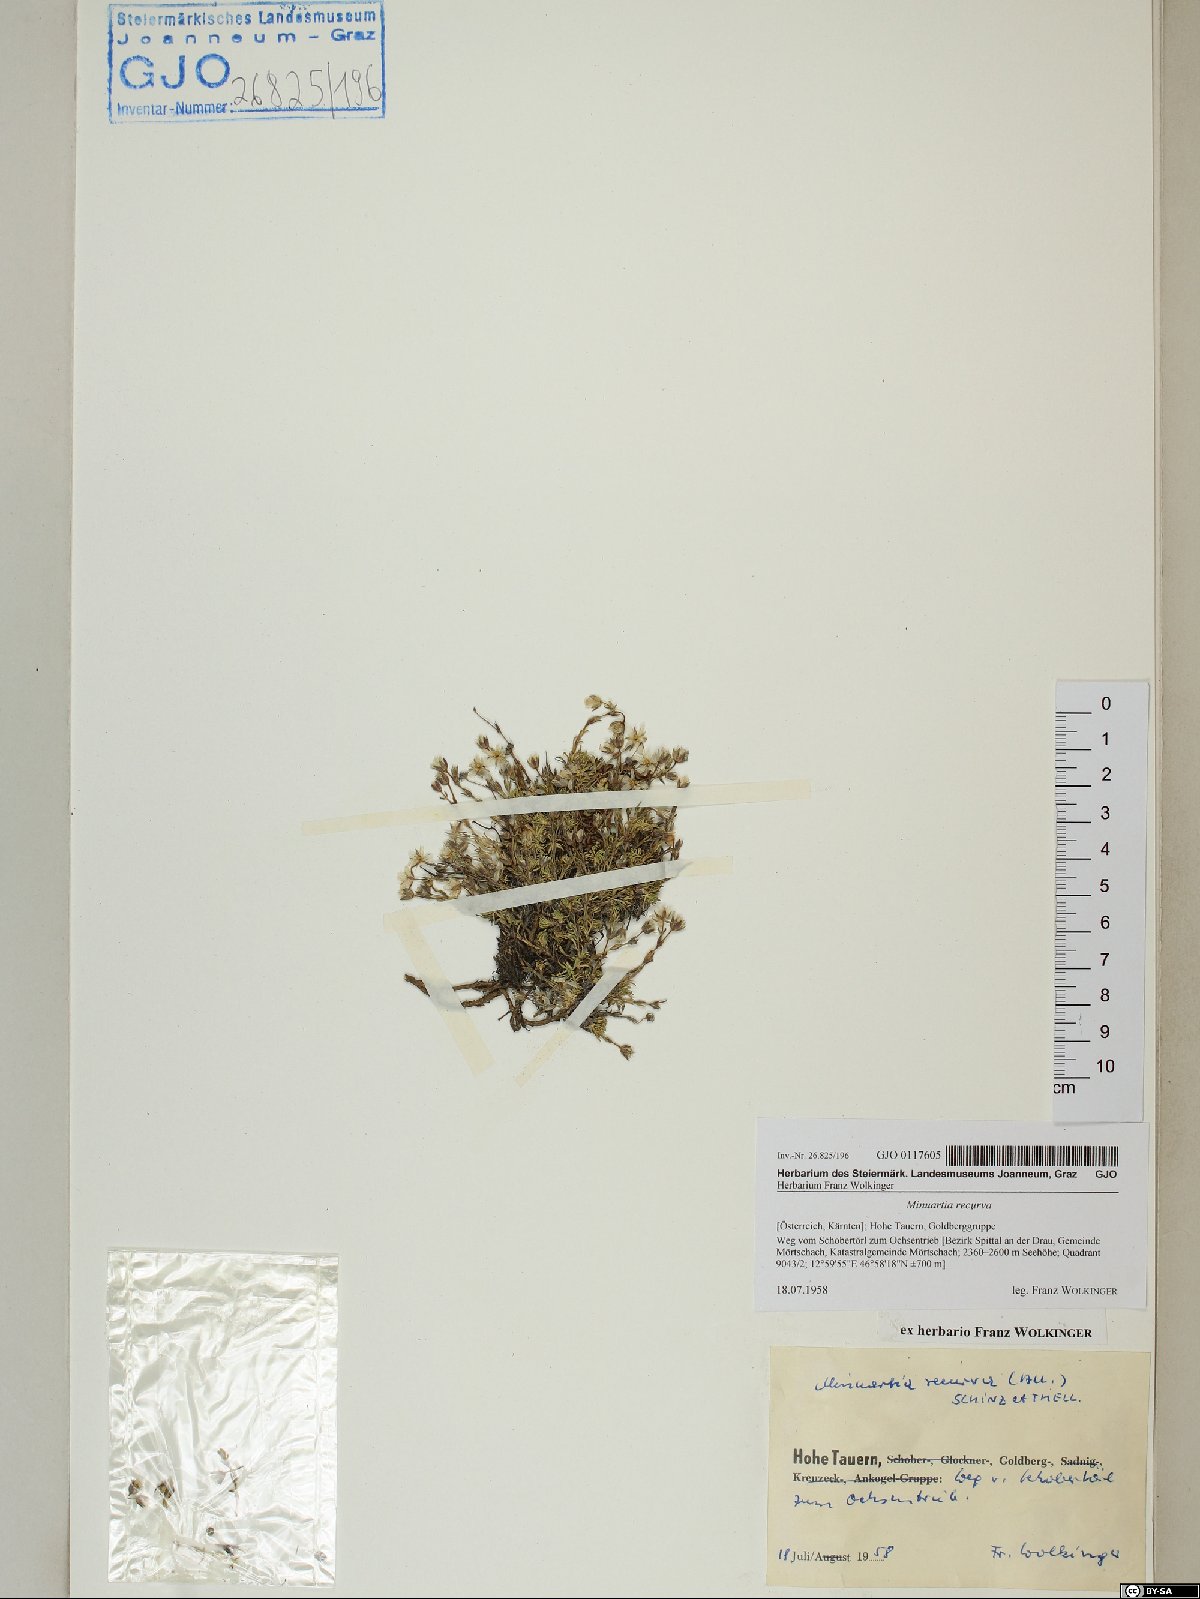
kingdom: Plantae
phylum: Tracheophyta
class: Magnoliopsida
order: Caryophyllales
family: Caryophyllaceae
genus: Minuartia
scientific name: Minuartia recurva
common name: Recurved sandwort
